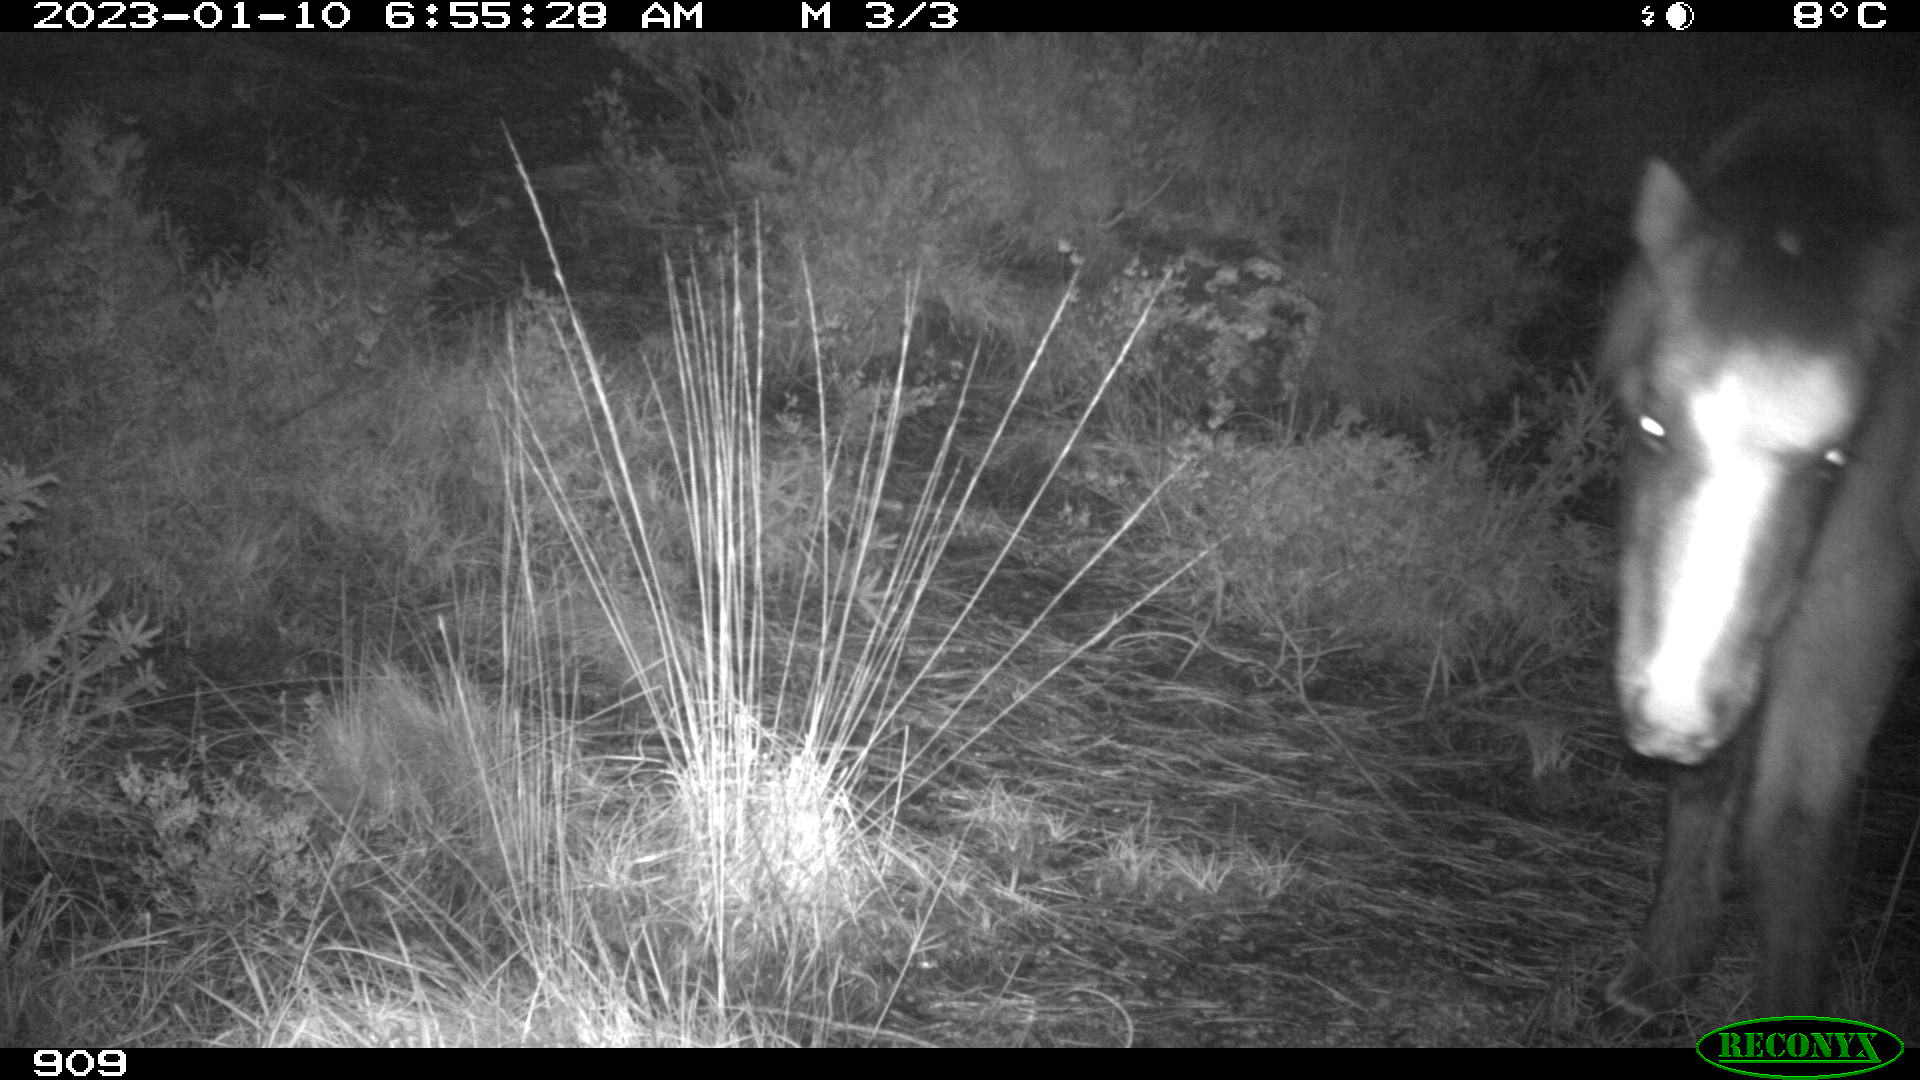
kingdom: Animalia
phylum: Chordata
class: Mammalia
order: Perissodactyla
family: Equidae
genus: Equus
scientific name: Equus caballus
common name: Horse
